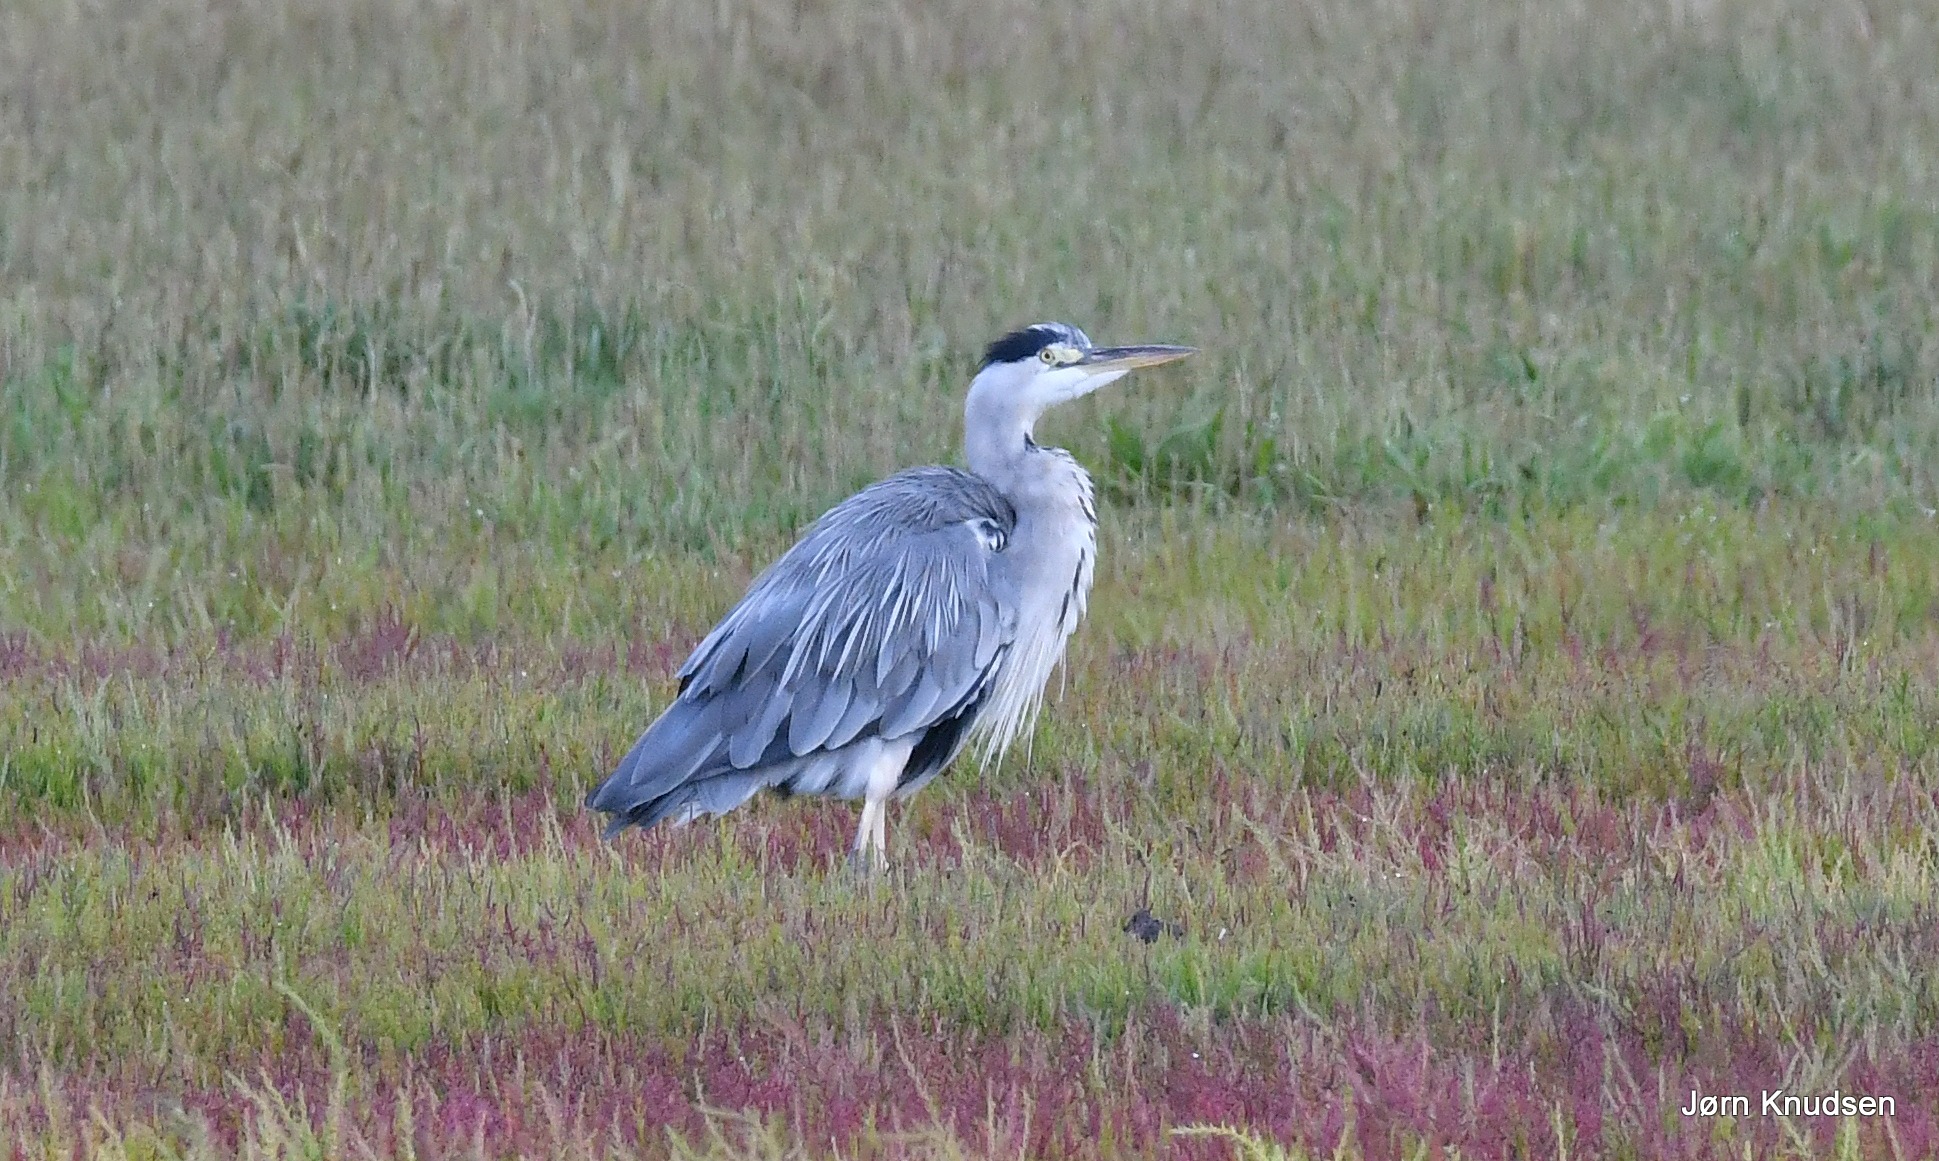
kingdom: Animalia
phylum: Chordata
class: Aves
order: Pelecaniformes
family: Ardeidae
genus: Ardea
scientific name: Ardea cinerea
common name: Fiskehejre
